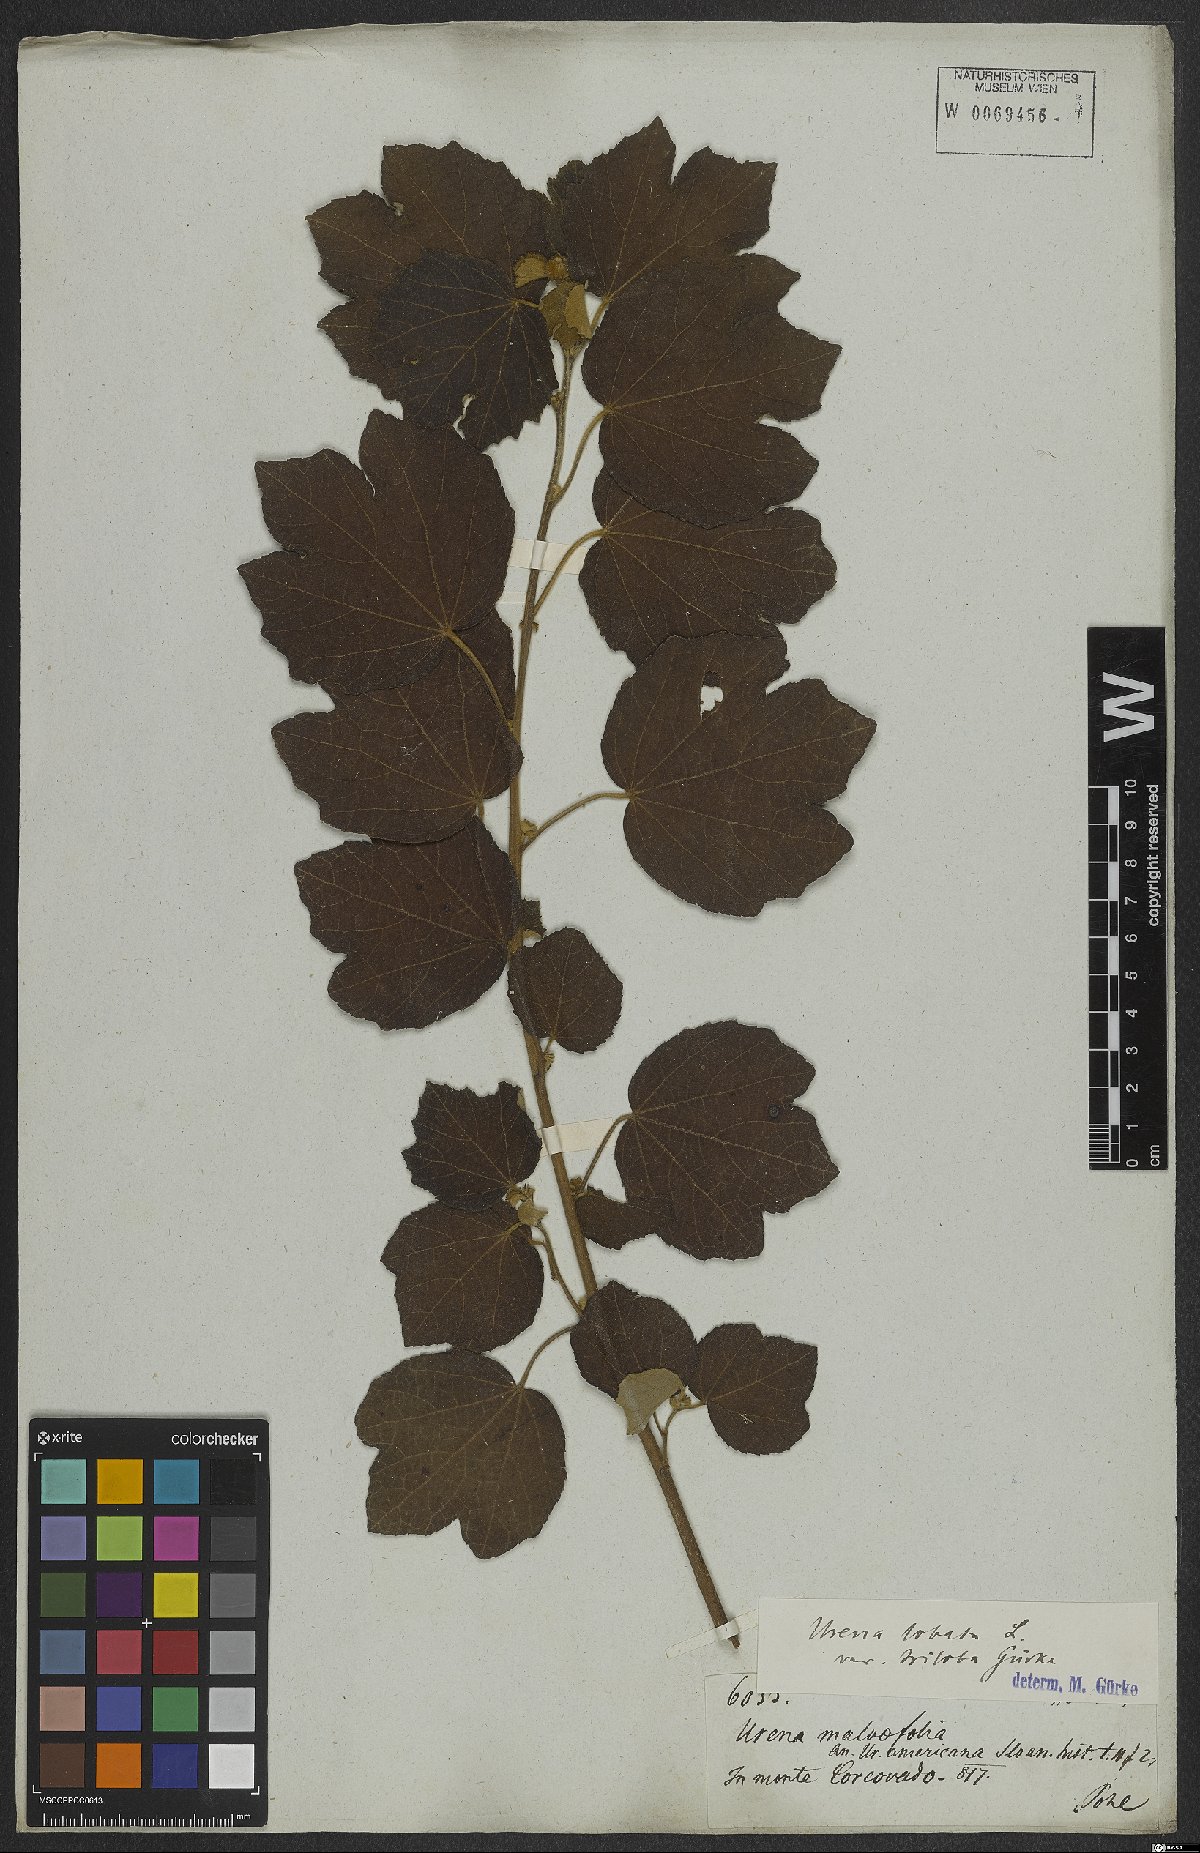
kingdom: Plantae
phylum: Tracheophyta
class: Magnoliopsida
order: Malvales
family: Malvaceae
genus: Urena
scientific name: Urena lobata
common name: Caesarweed
